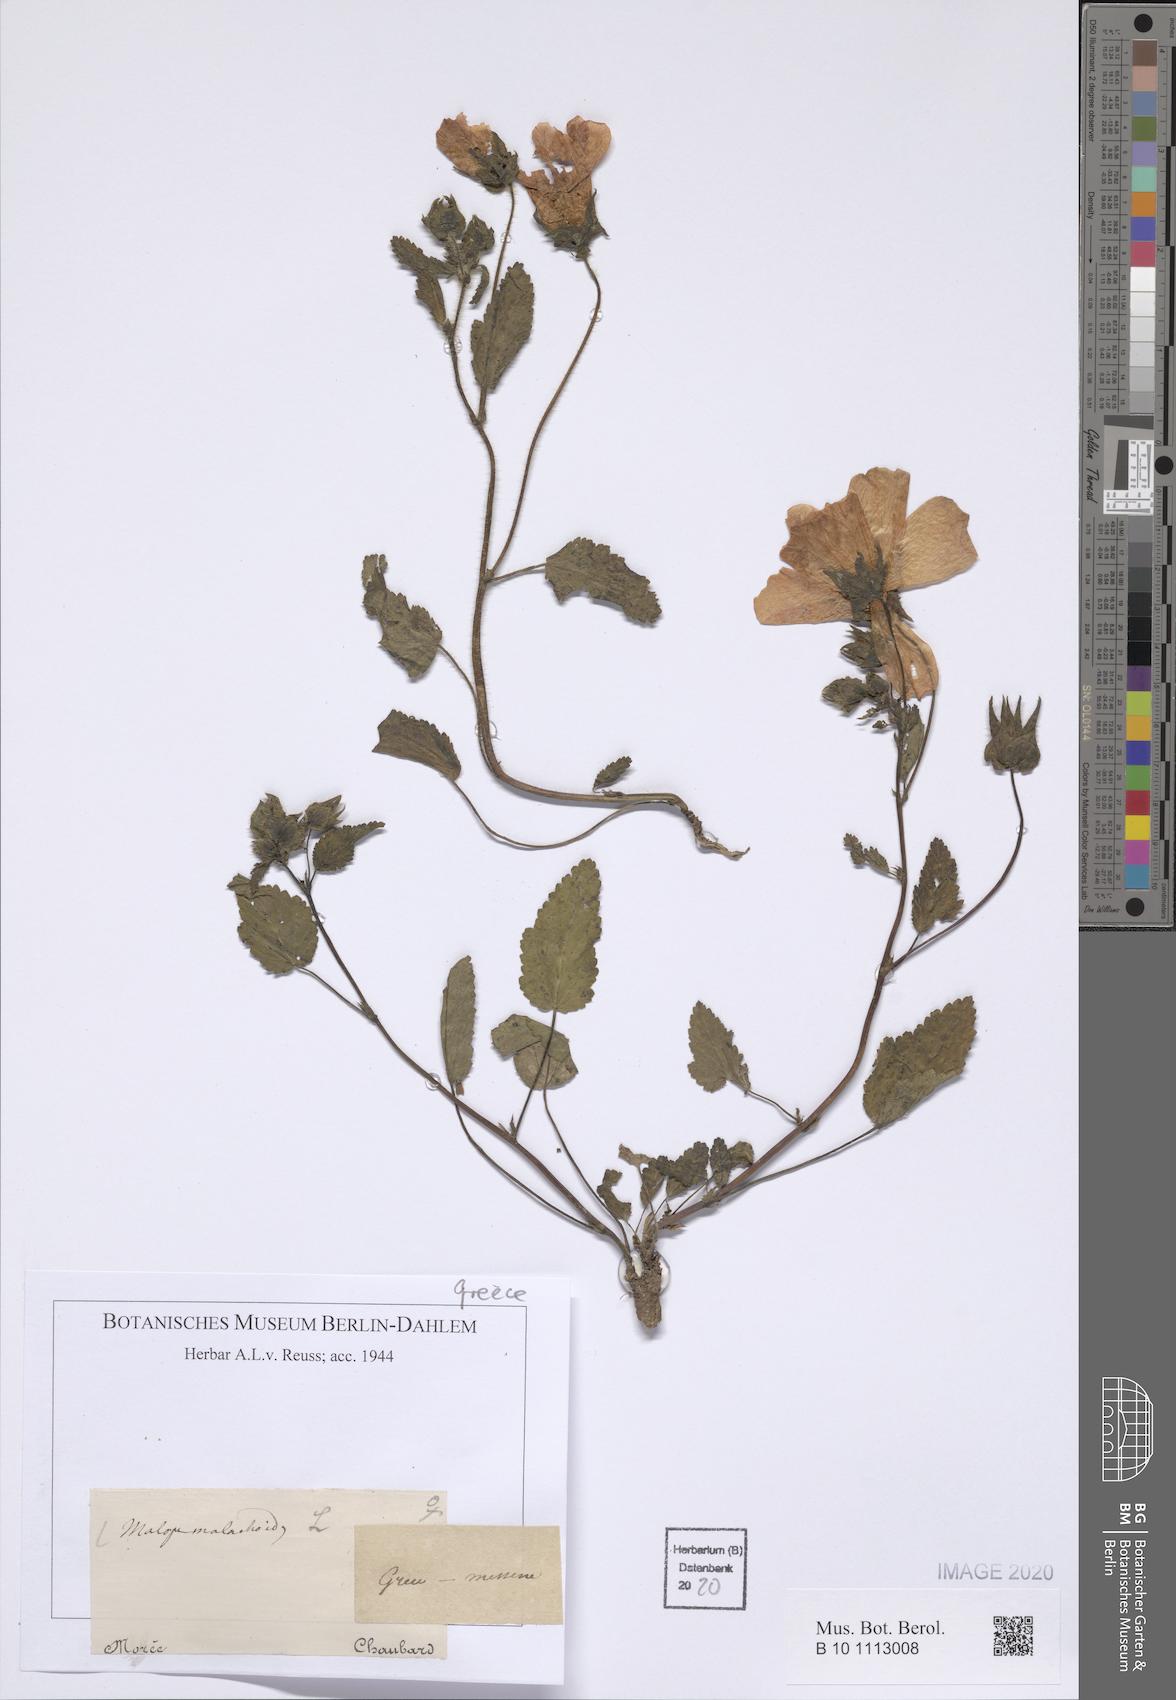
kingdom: Plantae
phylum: Tracheophyta
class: Magnoliopsida
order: Malvales
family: Malvaceae
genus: Malope
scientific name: Malope malacoides
